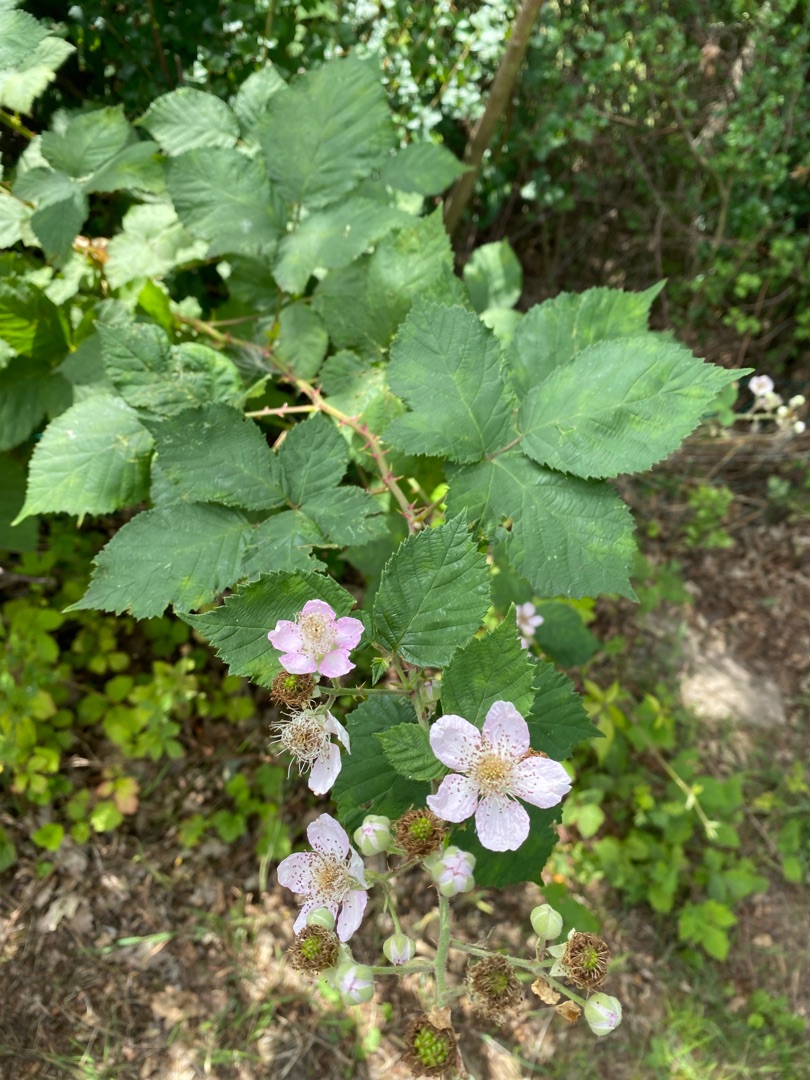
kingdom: Plantae
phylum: Tracheophyta
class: Magnoliopsida
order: Rosales
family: Rosaceae
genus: Rubus
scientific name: Rubus armeniacus
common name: Armensk brombær
